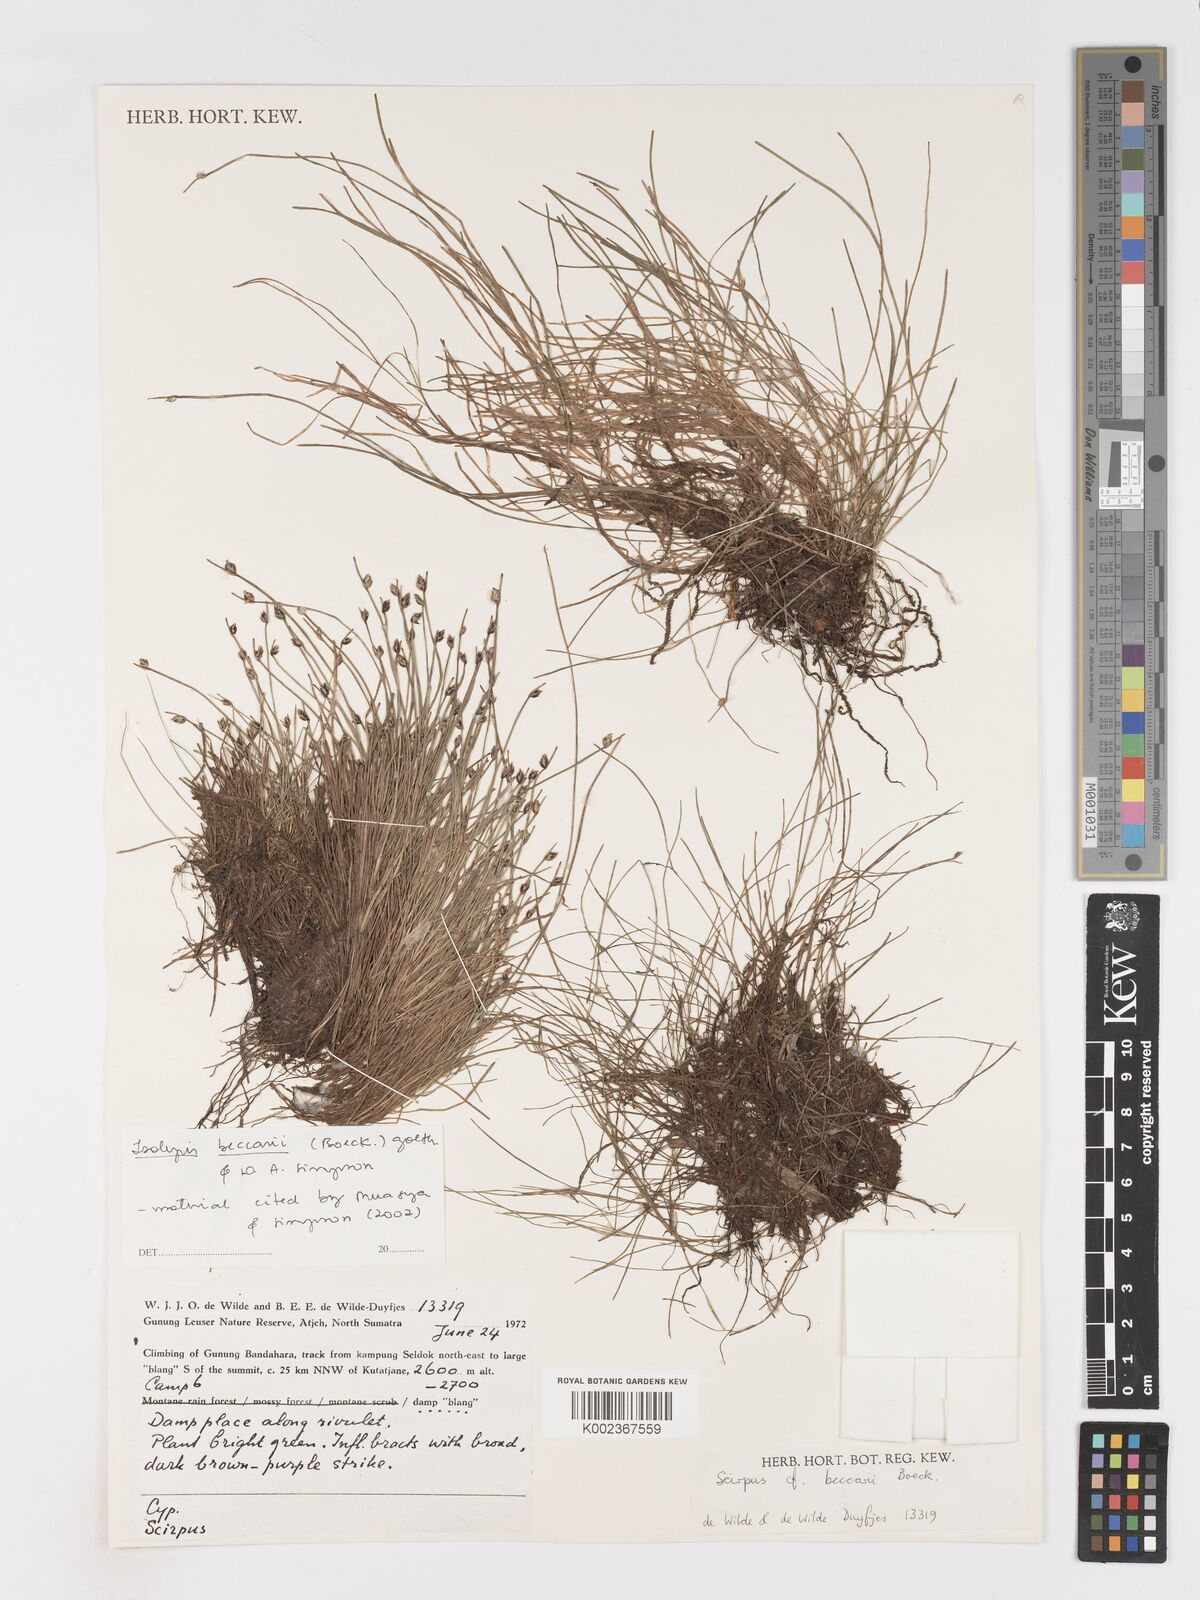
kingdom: Plantae
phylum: Tracheophyta
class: Liliopsida
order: Poales
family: Cyperaceae
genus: Isolepis
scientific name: Isolepis beccarii
